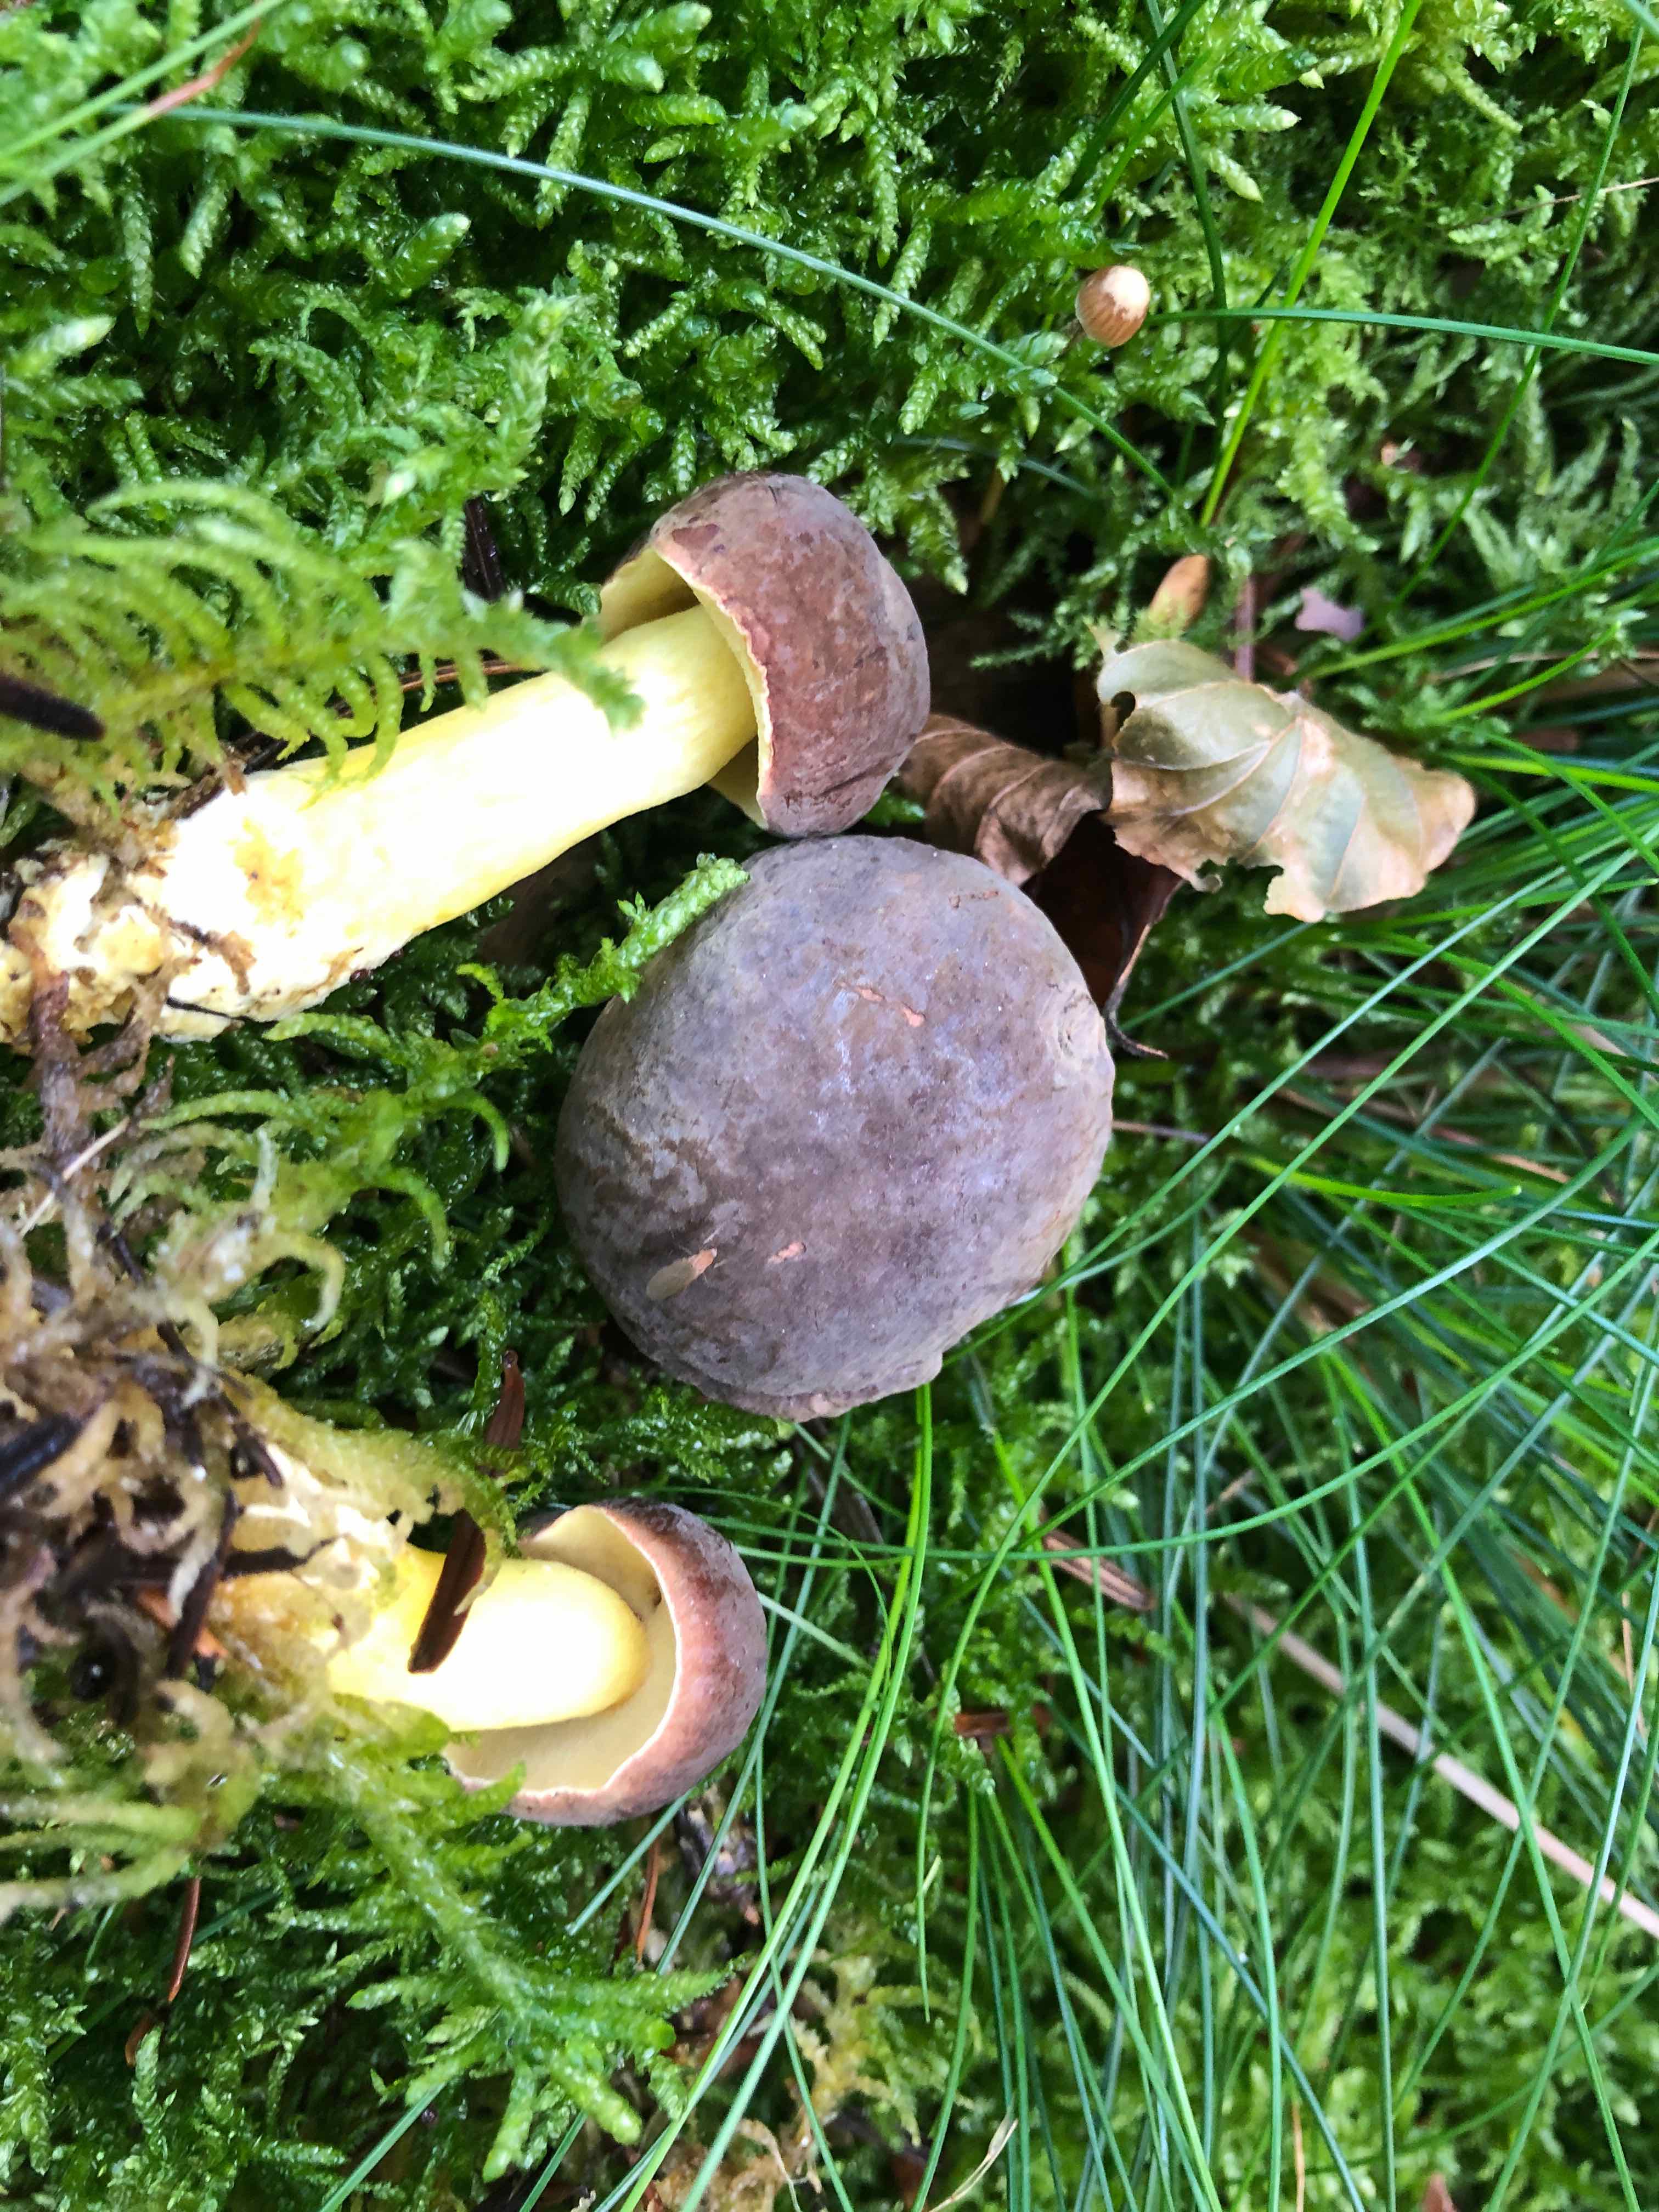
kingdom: Fungi
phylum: Basidiomycota
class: Agaricomycetes
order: Boletales
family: Boletaceae
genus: Xerocomellus
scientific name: Xerocomellus pruinatus
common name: dugget rørhat
